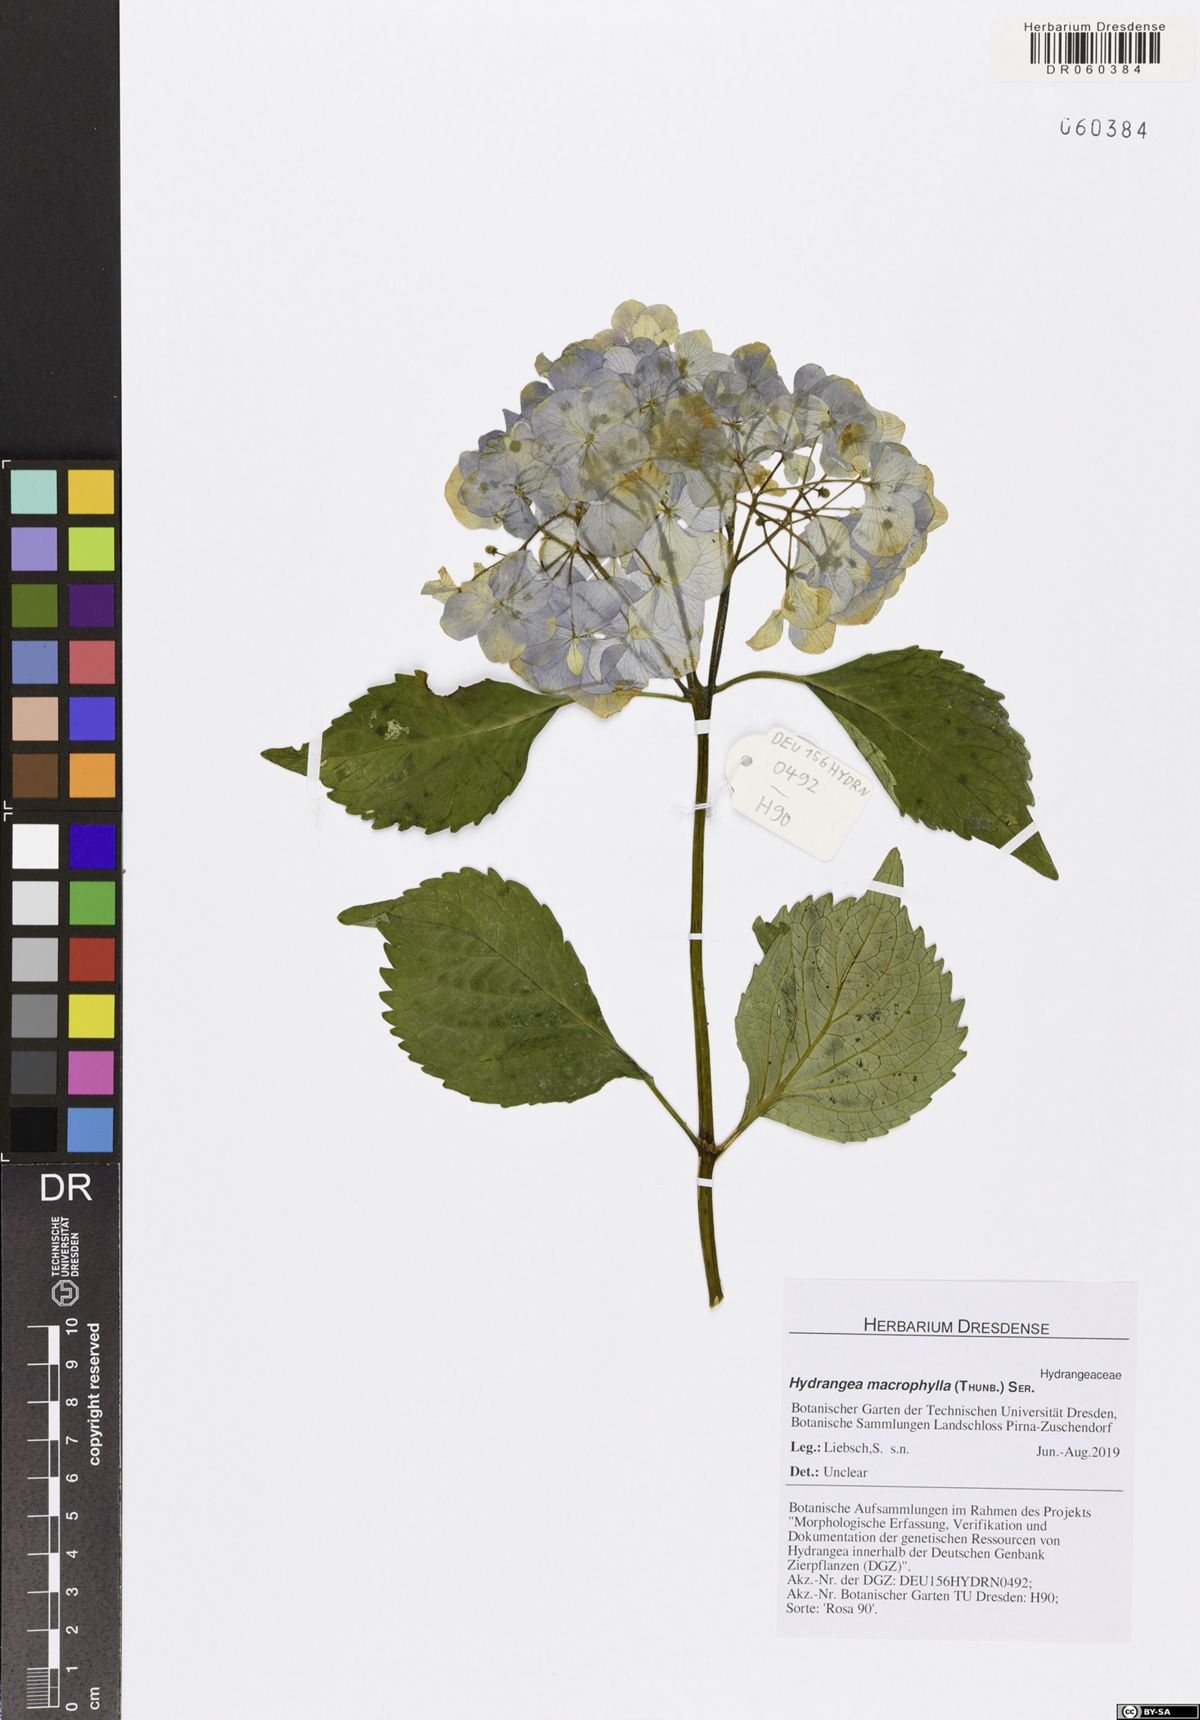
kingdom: Plantae
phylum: Tracheophyta
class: Magnoliopsida
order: Cornales
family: Hydrangeaceae
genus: Hydrangea
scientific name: Hydrangea macrophylla
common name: Hydrangea
